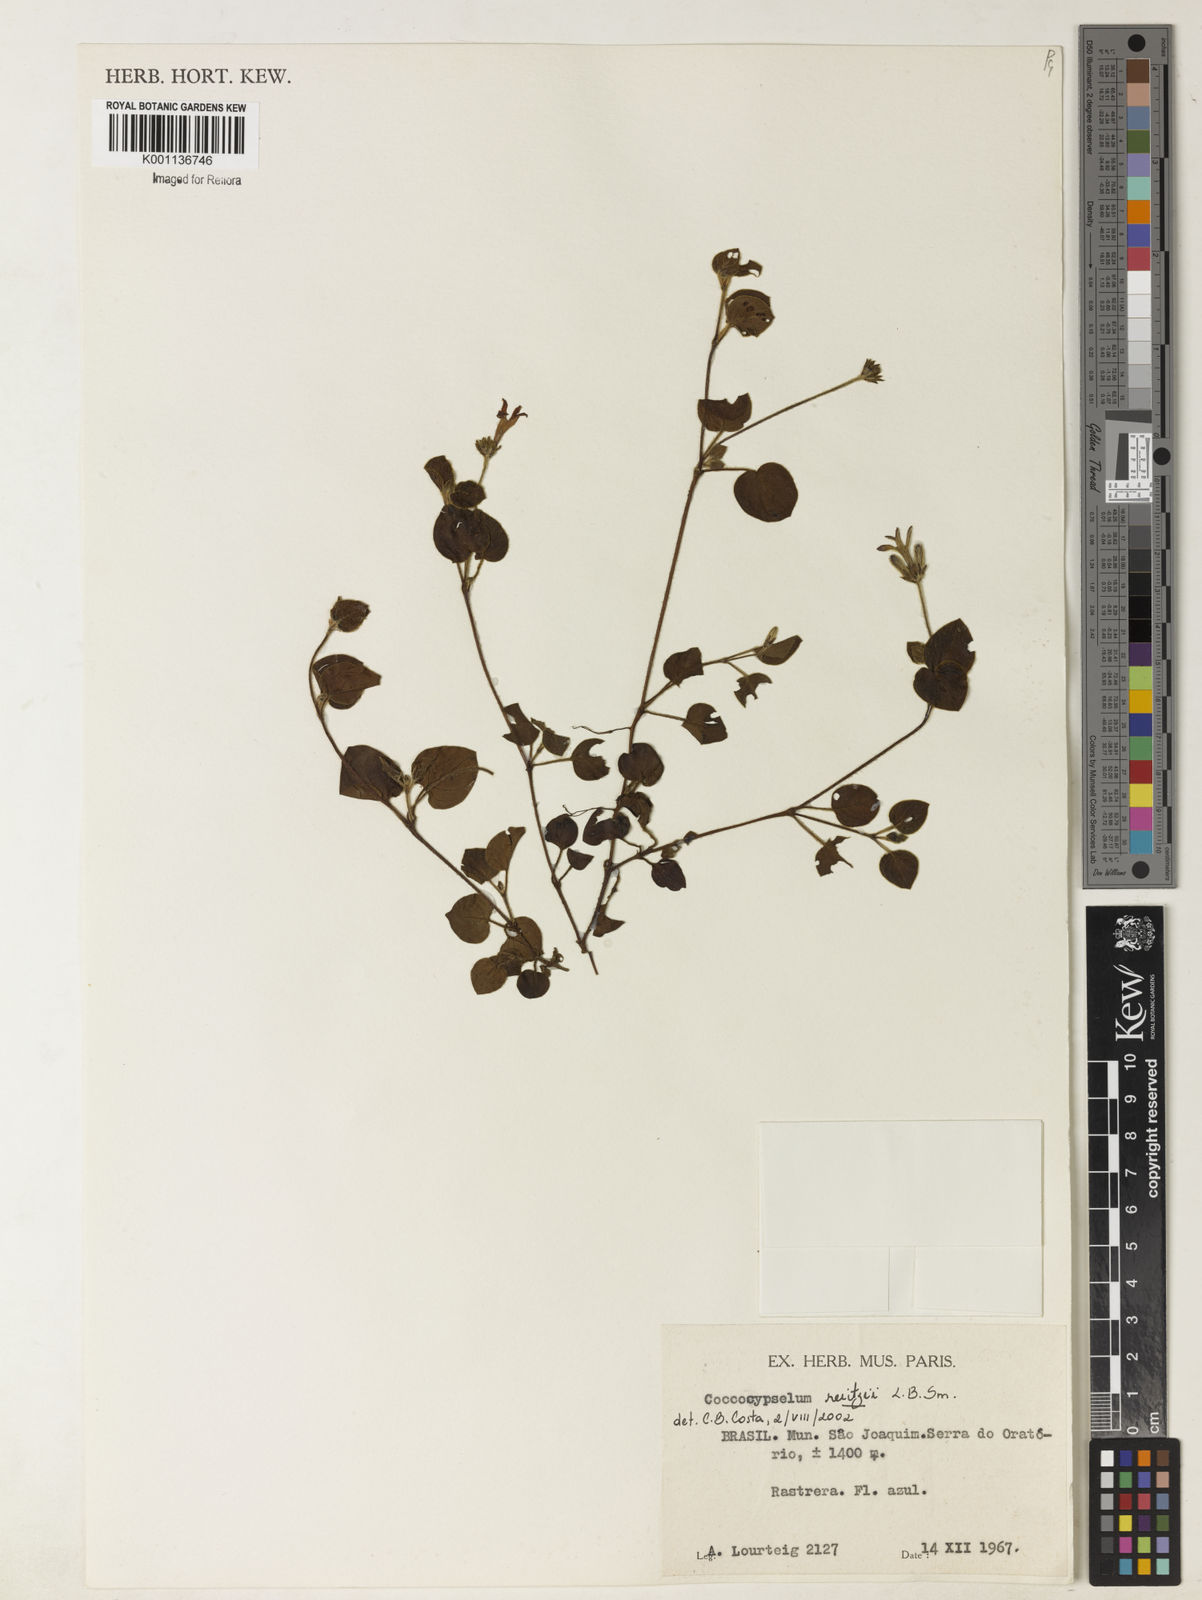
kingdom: Plantae
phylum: Tracheophyta
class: Magnoliopsida
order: Gentianales
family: Rubiaceae
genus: Coccocypselum
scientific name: Coccocypselum pulchellum
